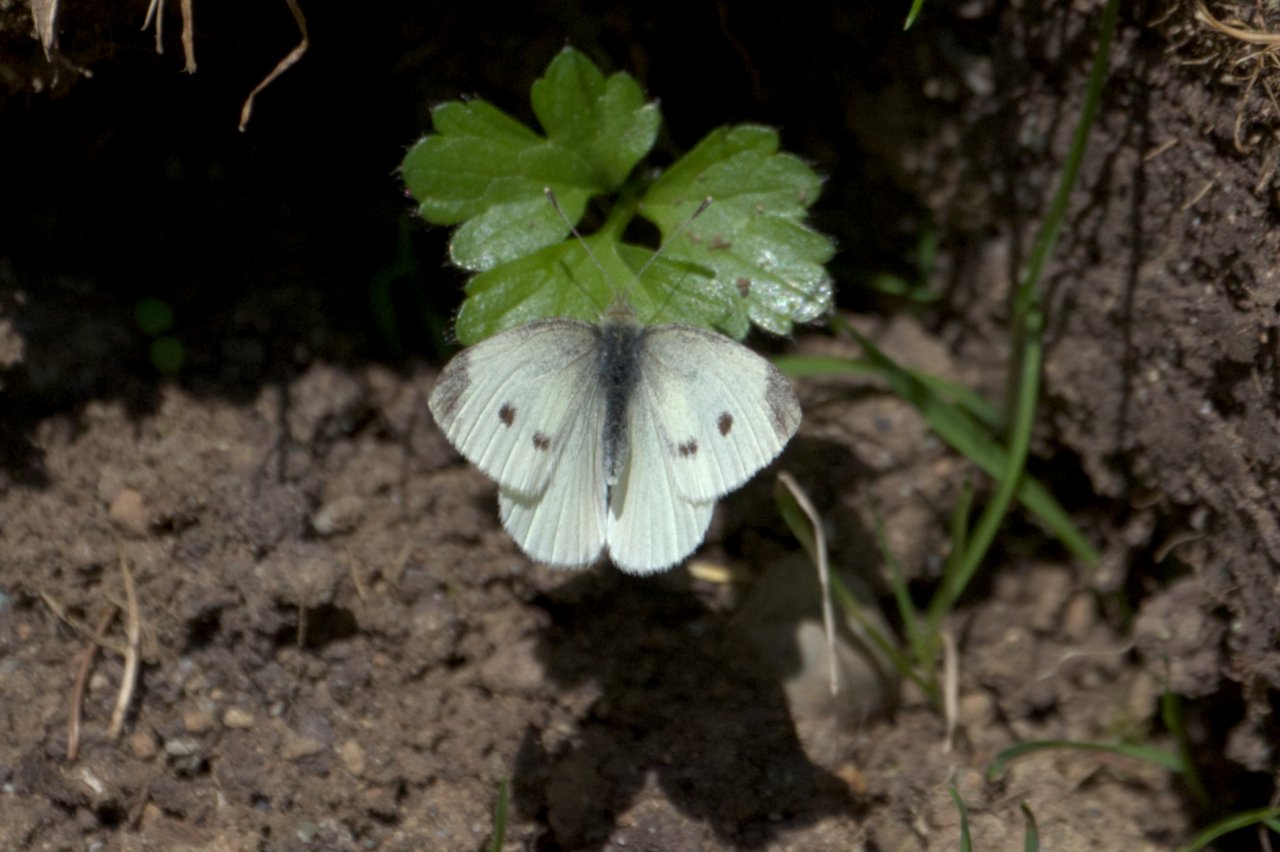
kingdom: Animalia
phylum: Arthropoda
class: Insecta
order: Lepidoptera
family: Pieridae
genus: Pieris
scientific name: Pieris rapae
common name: Cabbage White
